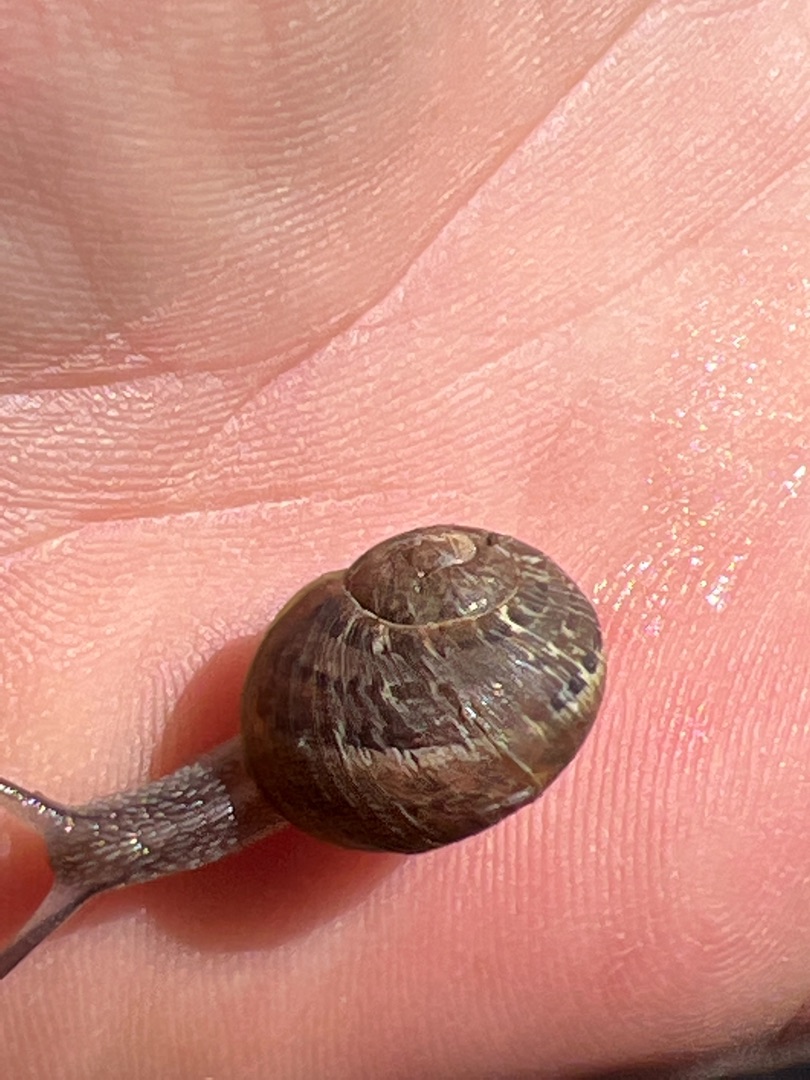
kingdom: Animalia
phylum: Mollusca
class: Gastropoda
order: Stylommatophora
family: Helicidae
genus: Cornu
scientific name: Cornu aspersum
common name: Plettet voldsnegl
